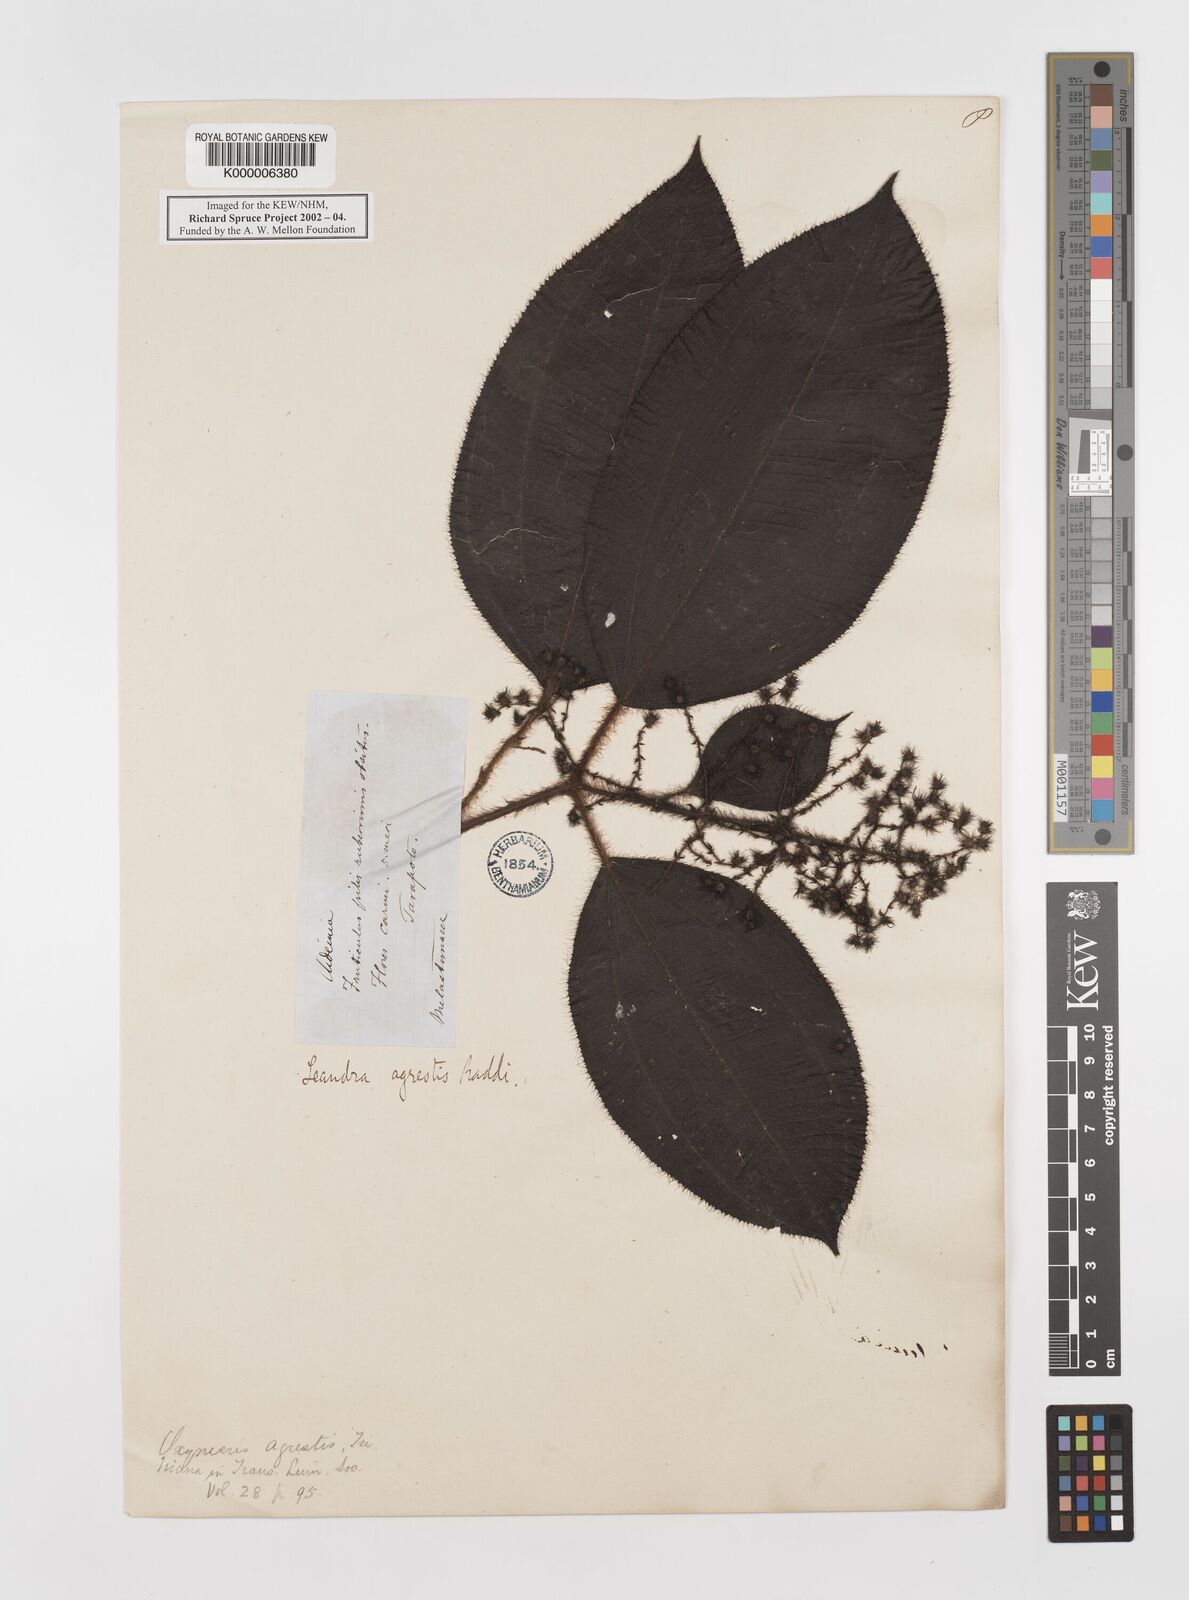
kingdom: Plantae
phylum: Tracheophyta
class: Magnoliopsida
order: Myrtales
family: Melastomataceae
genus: Miconia
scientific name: Miconia agrestis
